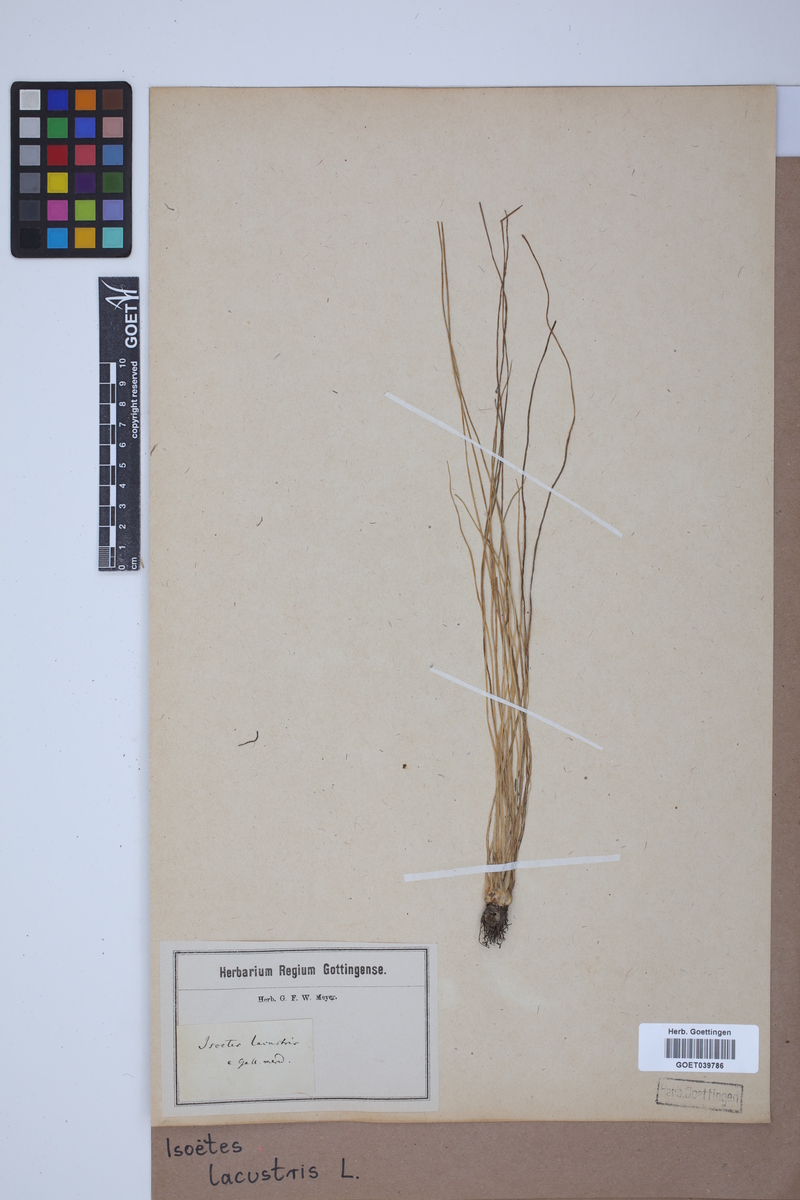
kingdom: Plantae
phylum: Tracheophyta
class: Lycopodiopsida
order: Isoetales
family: Isoetaceae
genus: Isoetes
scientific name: Isoetes lacustris
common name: Common quillwort
